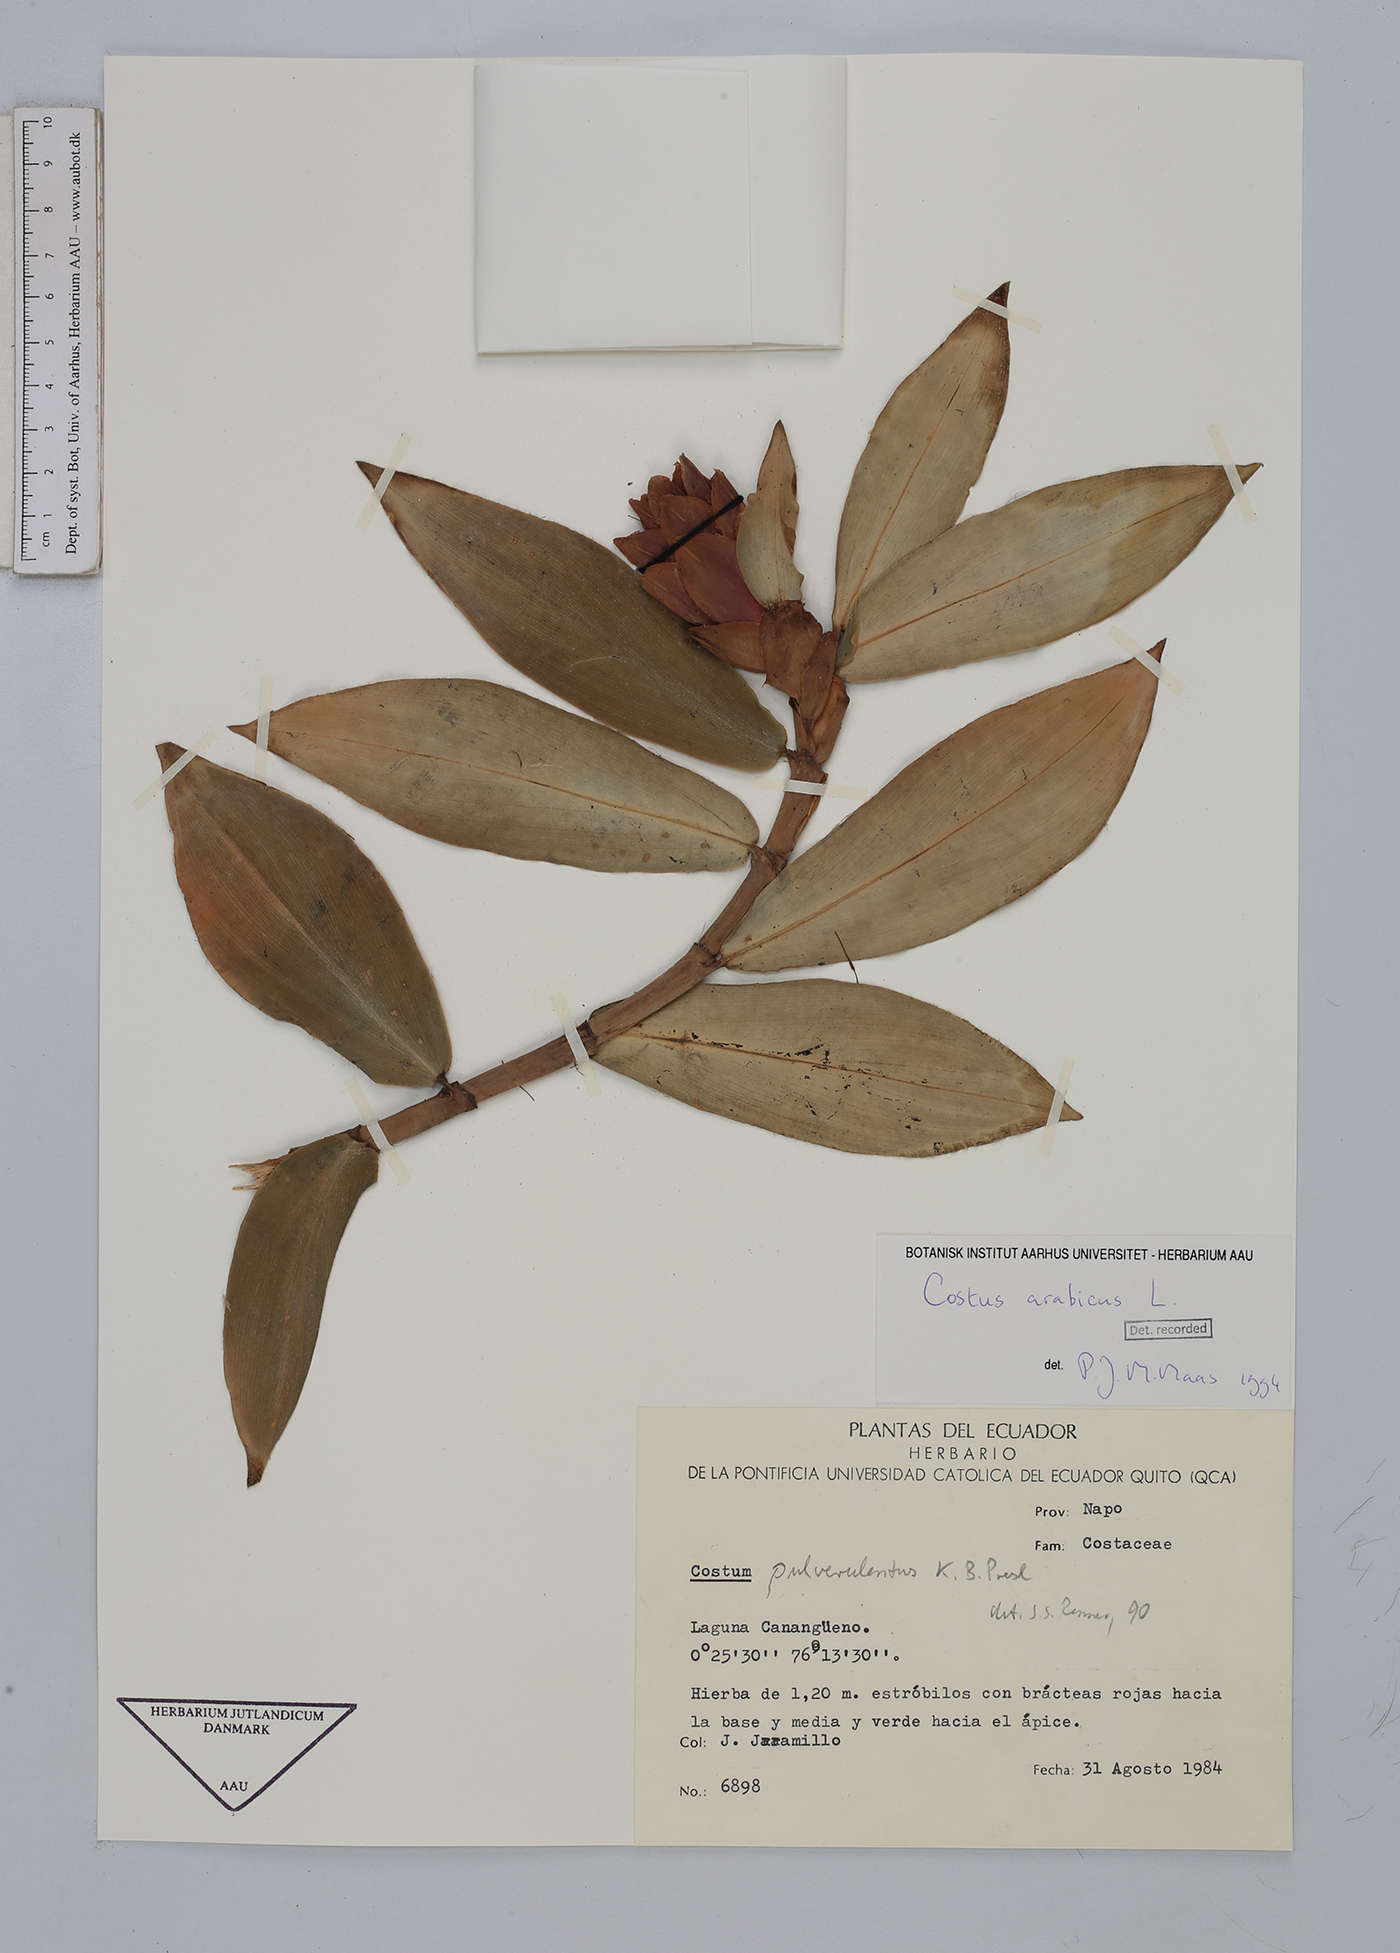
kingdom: Plantae
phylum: Tracheophyta
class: Liliopsida
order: Zingiberales
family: Costaceae
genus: Costus
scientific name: Costus arabicus
